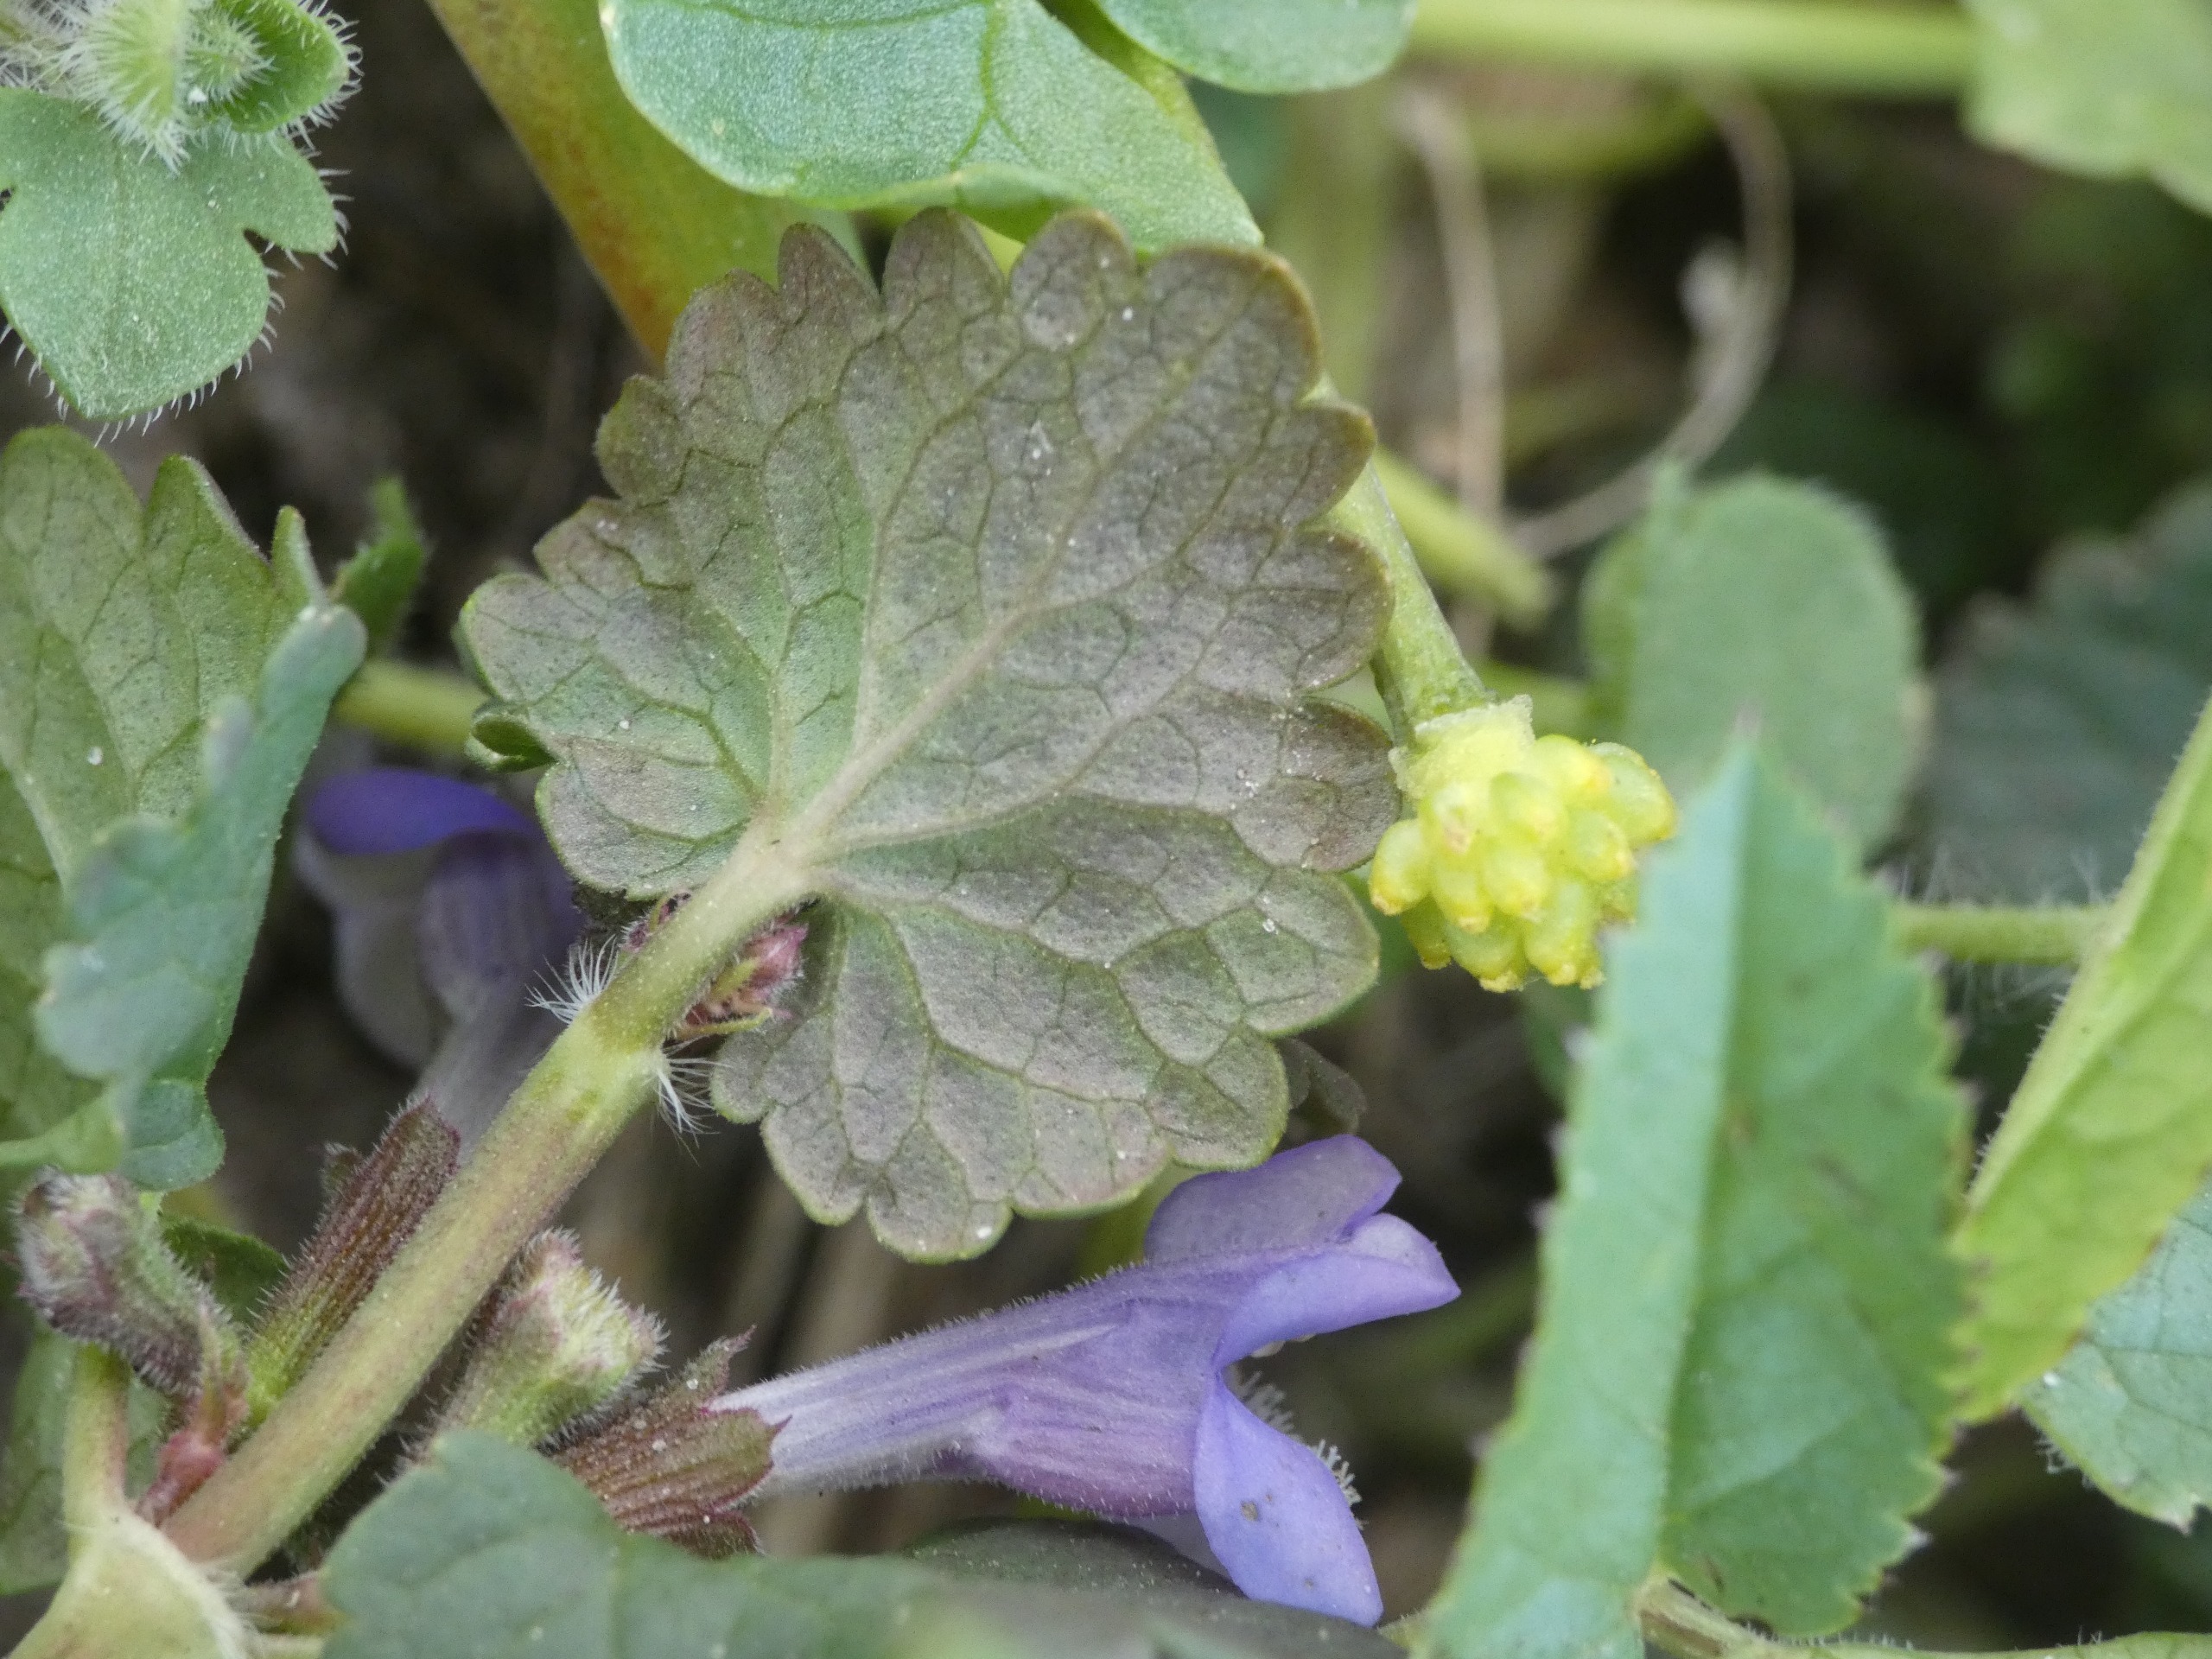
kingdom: Plantae
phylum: Tracheophyta
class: Magnoliopsida
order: Lamiales
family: Lamiaceae
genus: Glechoma
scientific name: Glechoma hederacea
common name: Korsknap
